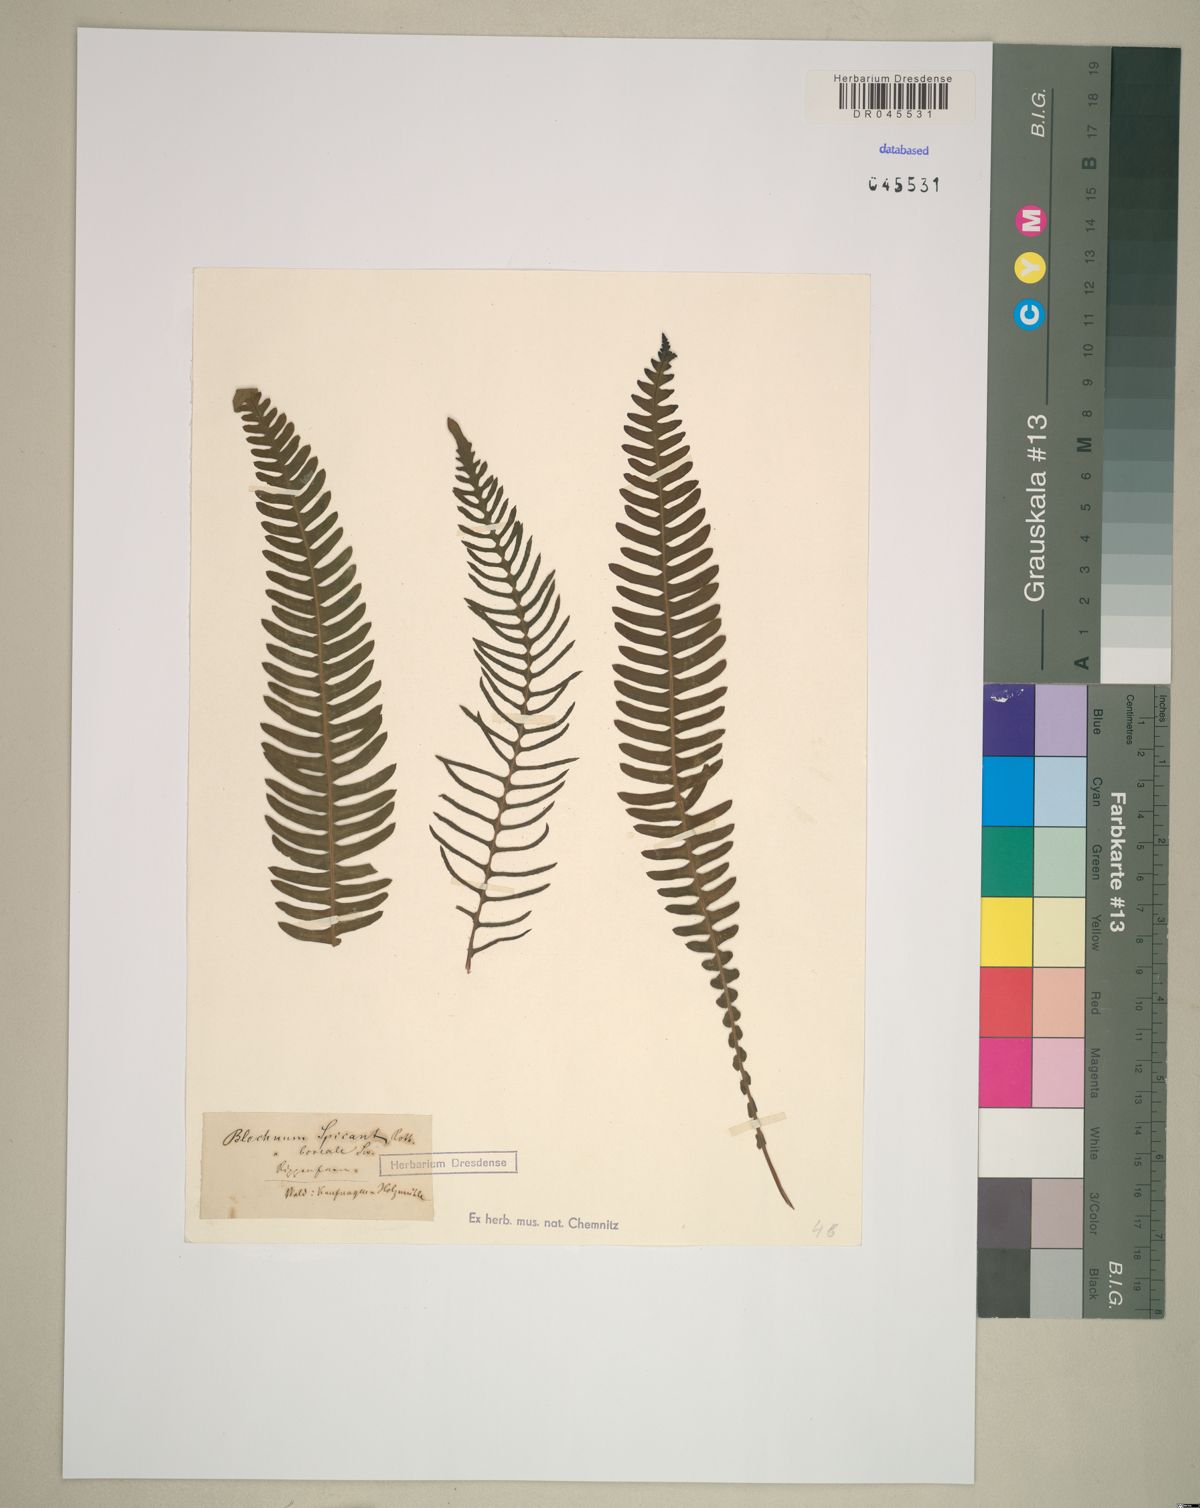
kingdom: Plantae
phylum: Tracheophyta
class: Polypodiopsida
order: Polypodiales
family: Blechnaceae
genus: Struthiopteris
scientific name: Struthiopteris spicant
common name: Deer fern
